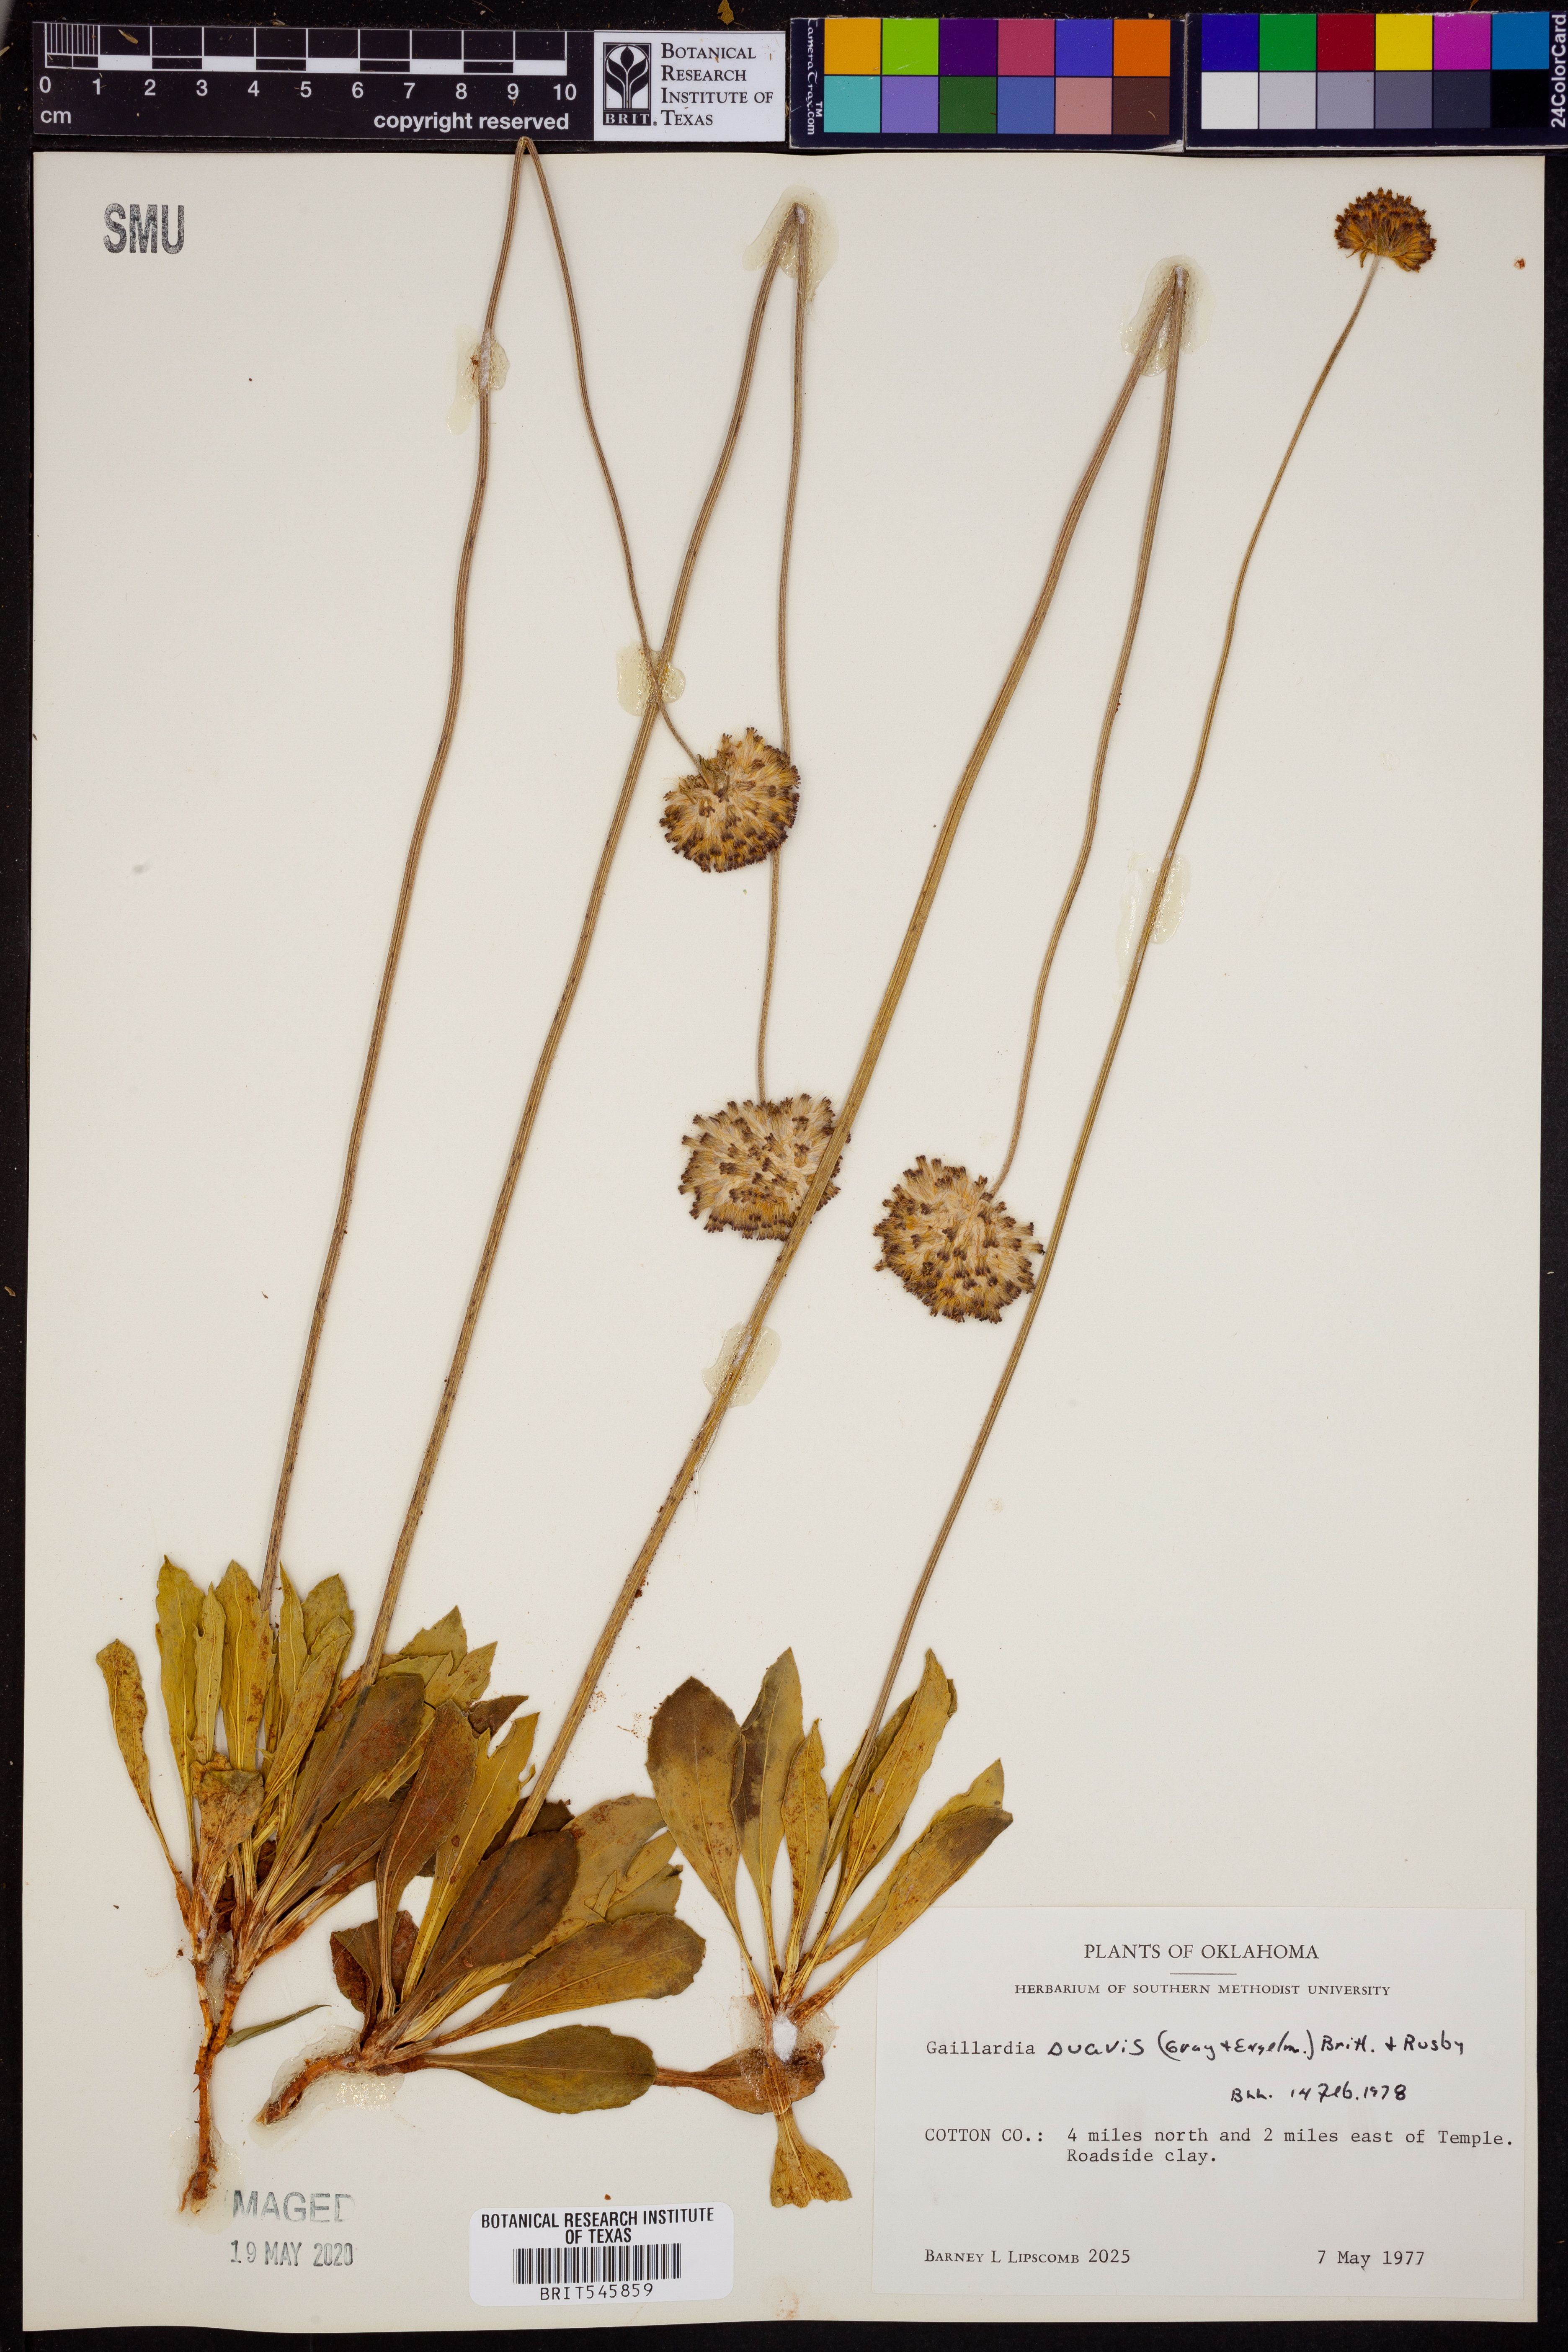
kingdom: Plantae
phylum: Tracheophyta
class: Magnoliopsida
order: Asterales
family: Asteraceae
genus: Gaillardia
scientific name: Gaillardia suavis
